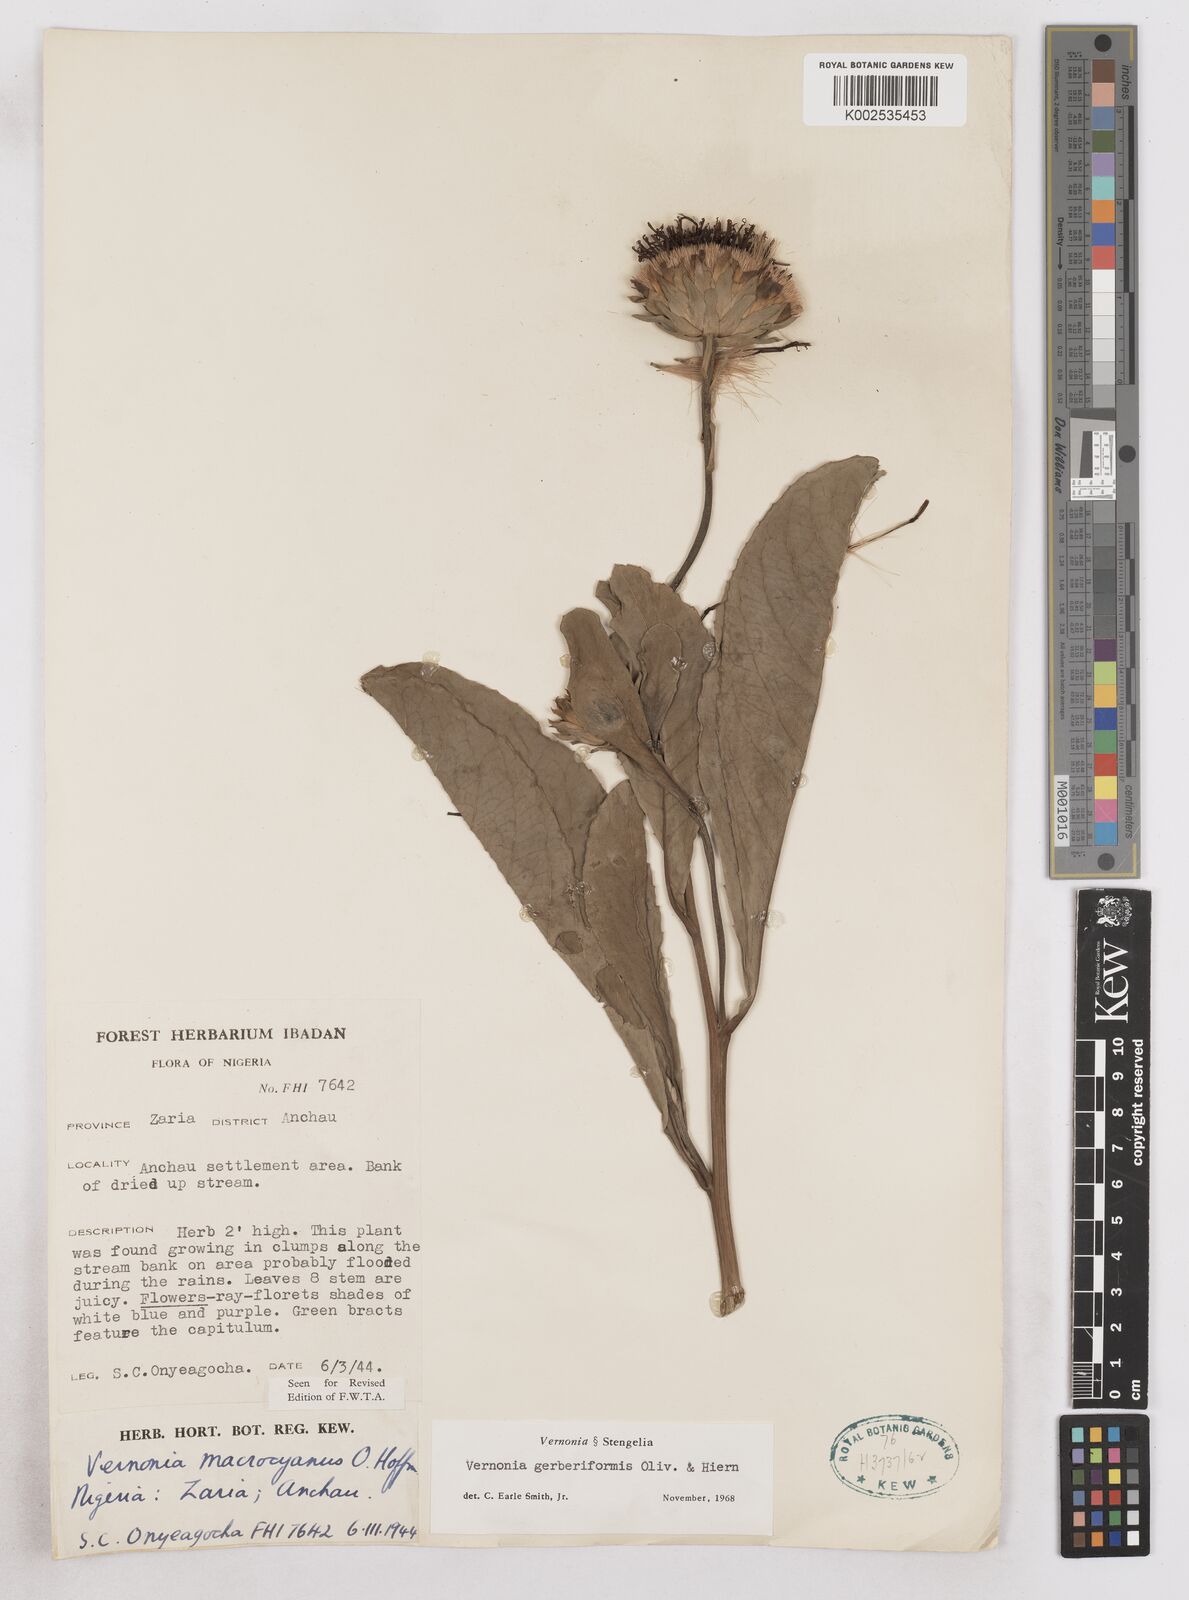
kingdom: Plantae
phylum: Tracheophyta
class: Magnoliopsida
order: Asterales
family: Asteraceae
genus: Linzia
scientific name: Linzia gerberiformis
